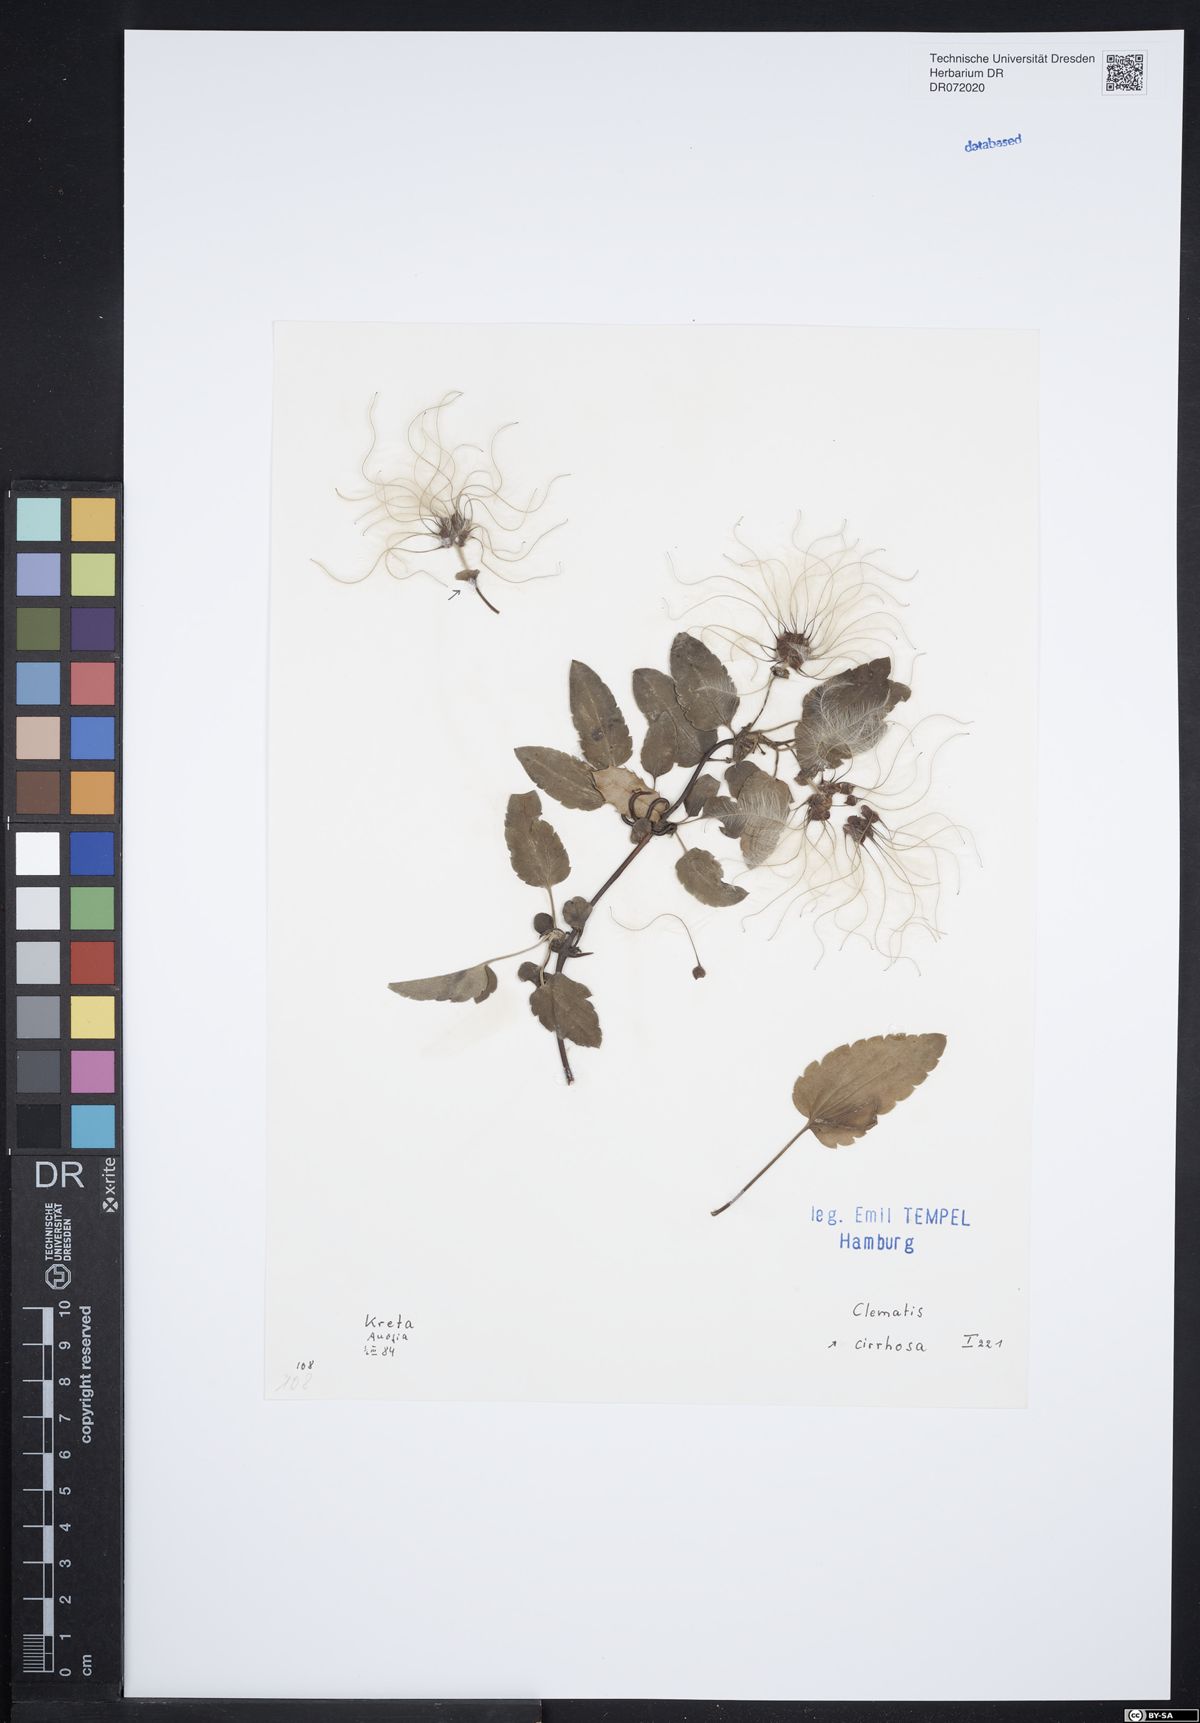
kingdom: Plantae
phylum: Tracheophyta
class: Magnoliopsida
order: Ranunculales
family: Ranunculaceae
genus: Clematis
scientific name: Clematis cirrhosa
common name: Early virgin's-bower
